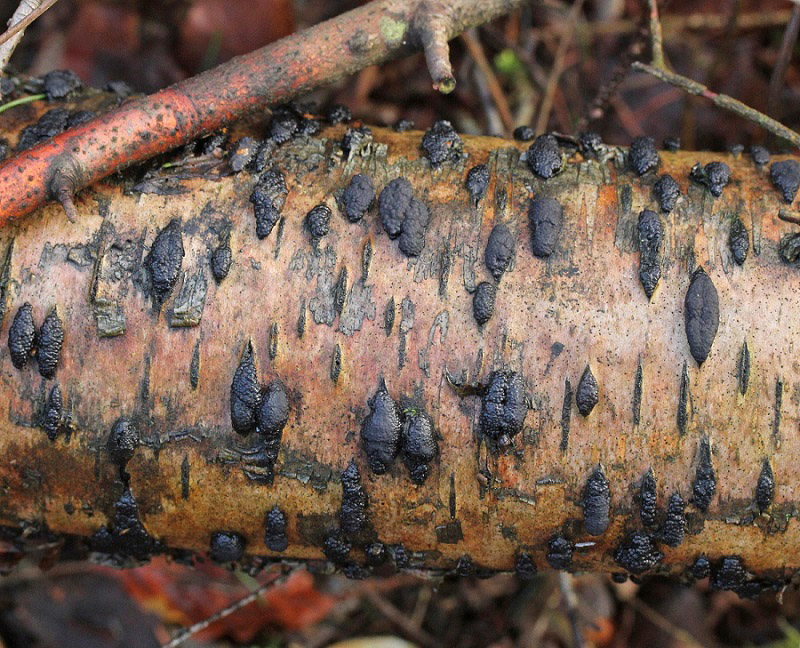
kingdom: Fungi
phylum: Ascomycota
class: Sordariomycetes
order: Xylariales
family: Hypoxylaceae
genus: Jackrogersella
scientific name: Jackrogersella multiformis
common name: foranderlig kulbær
